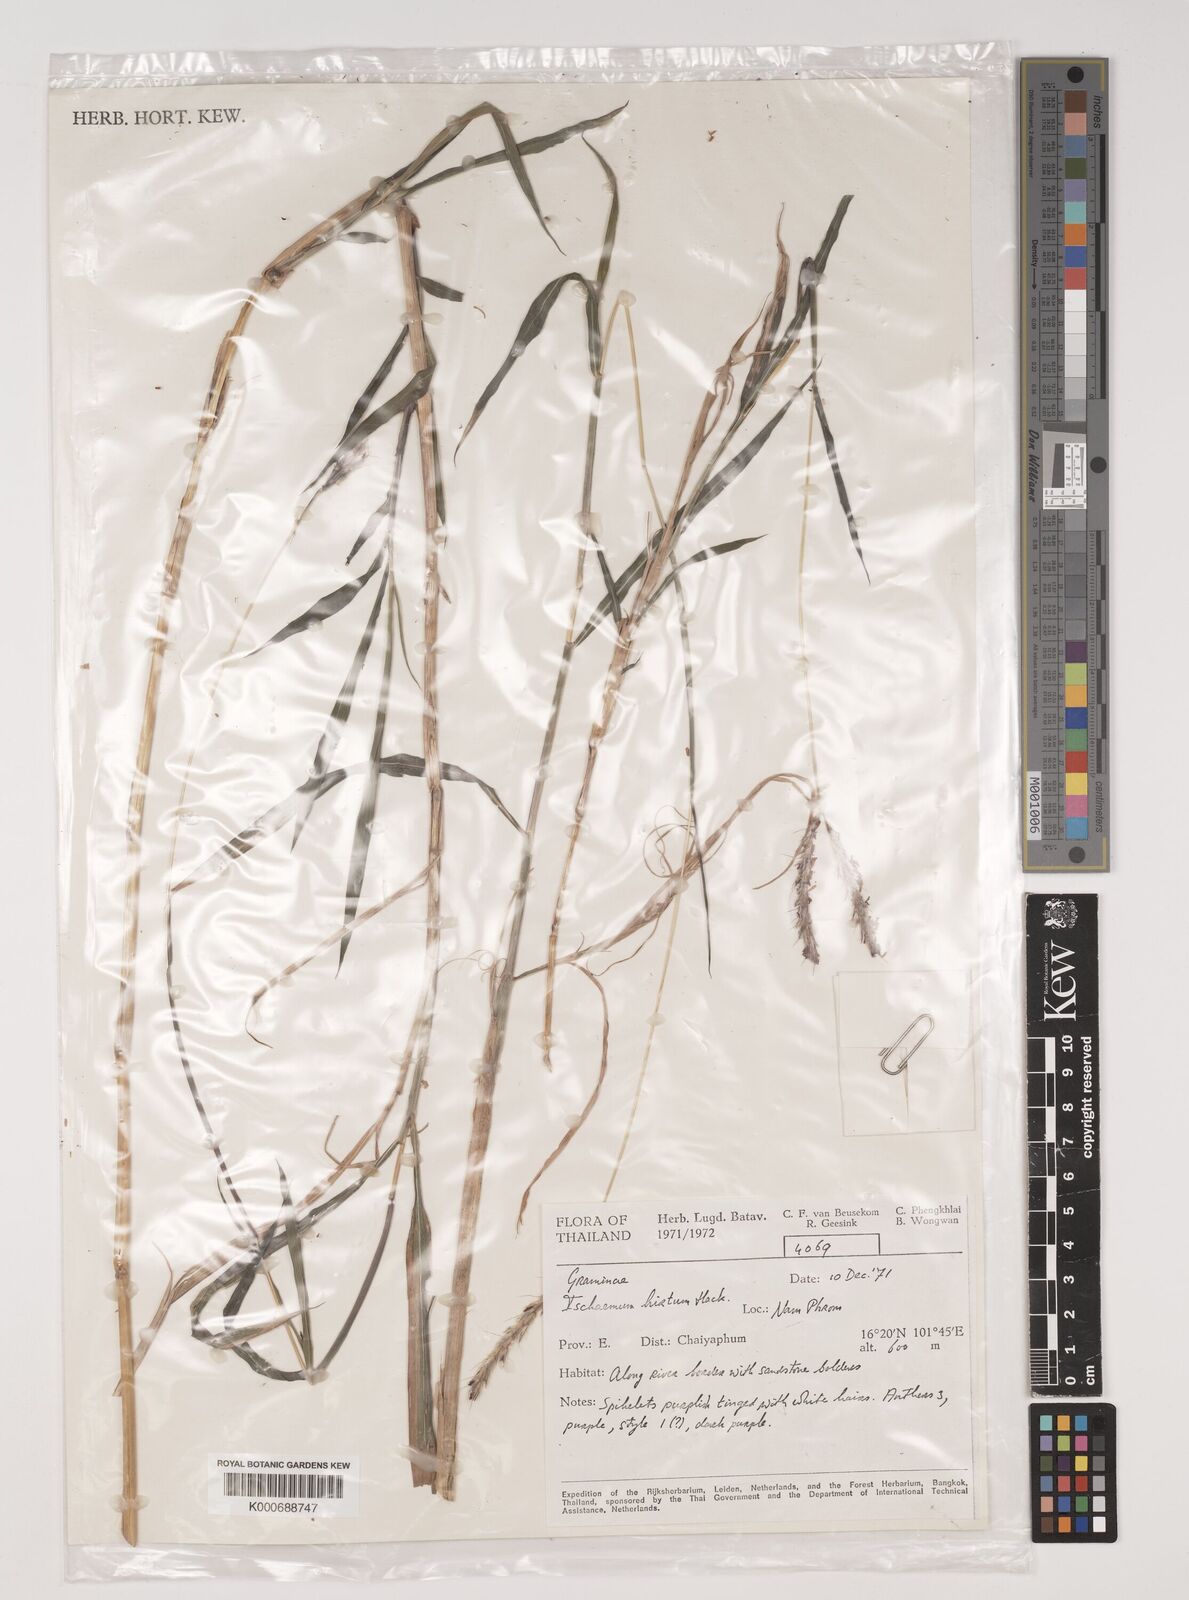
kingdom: Plantae
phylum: Tracheophyta
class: Liliopsida
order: Poales
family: Poaceae
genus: Ischaemum
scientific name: Ischaemum polystachyum
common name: Paddle grass
